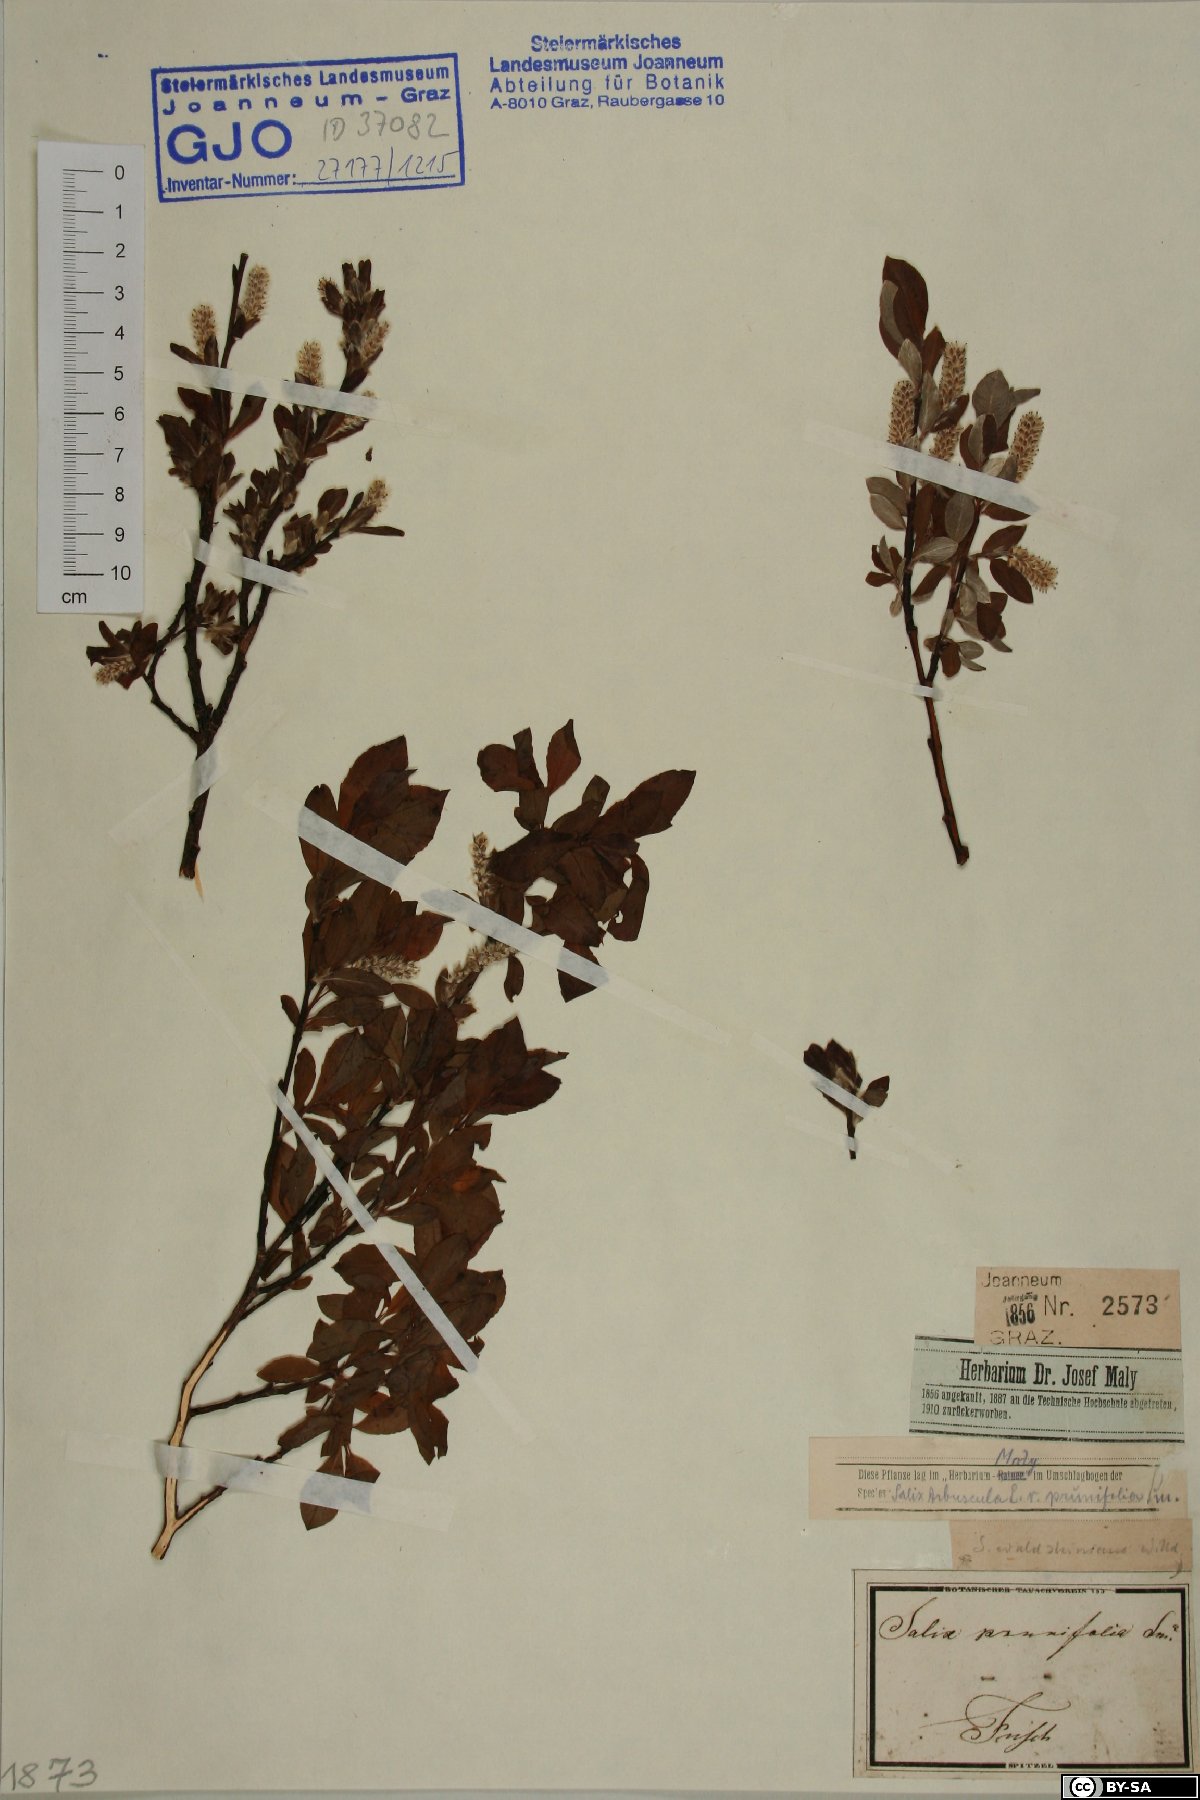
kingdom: Plantae
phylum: Tracheophyta
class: Magnoliopsida
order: Malpighiales
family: Salicaceae
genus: Salix
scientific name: Salix waldsteiniana
